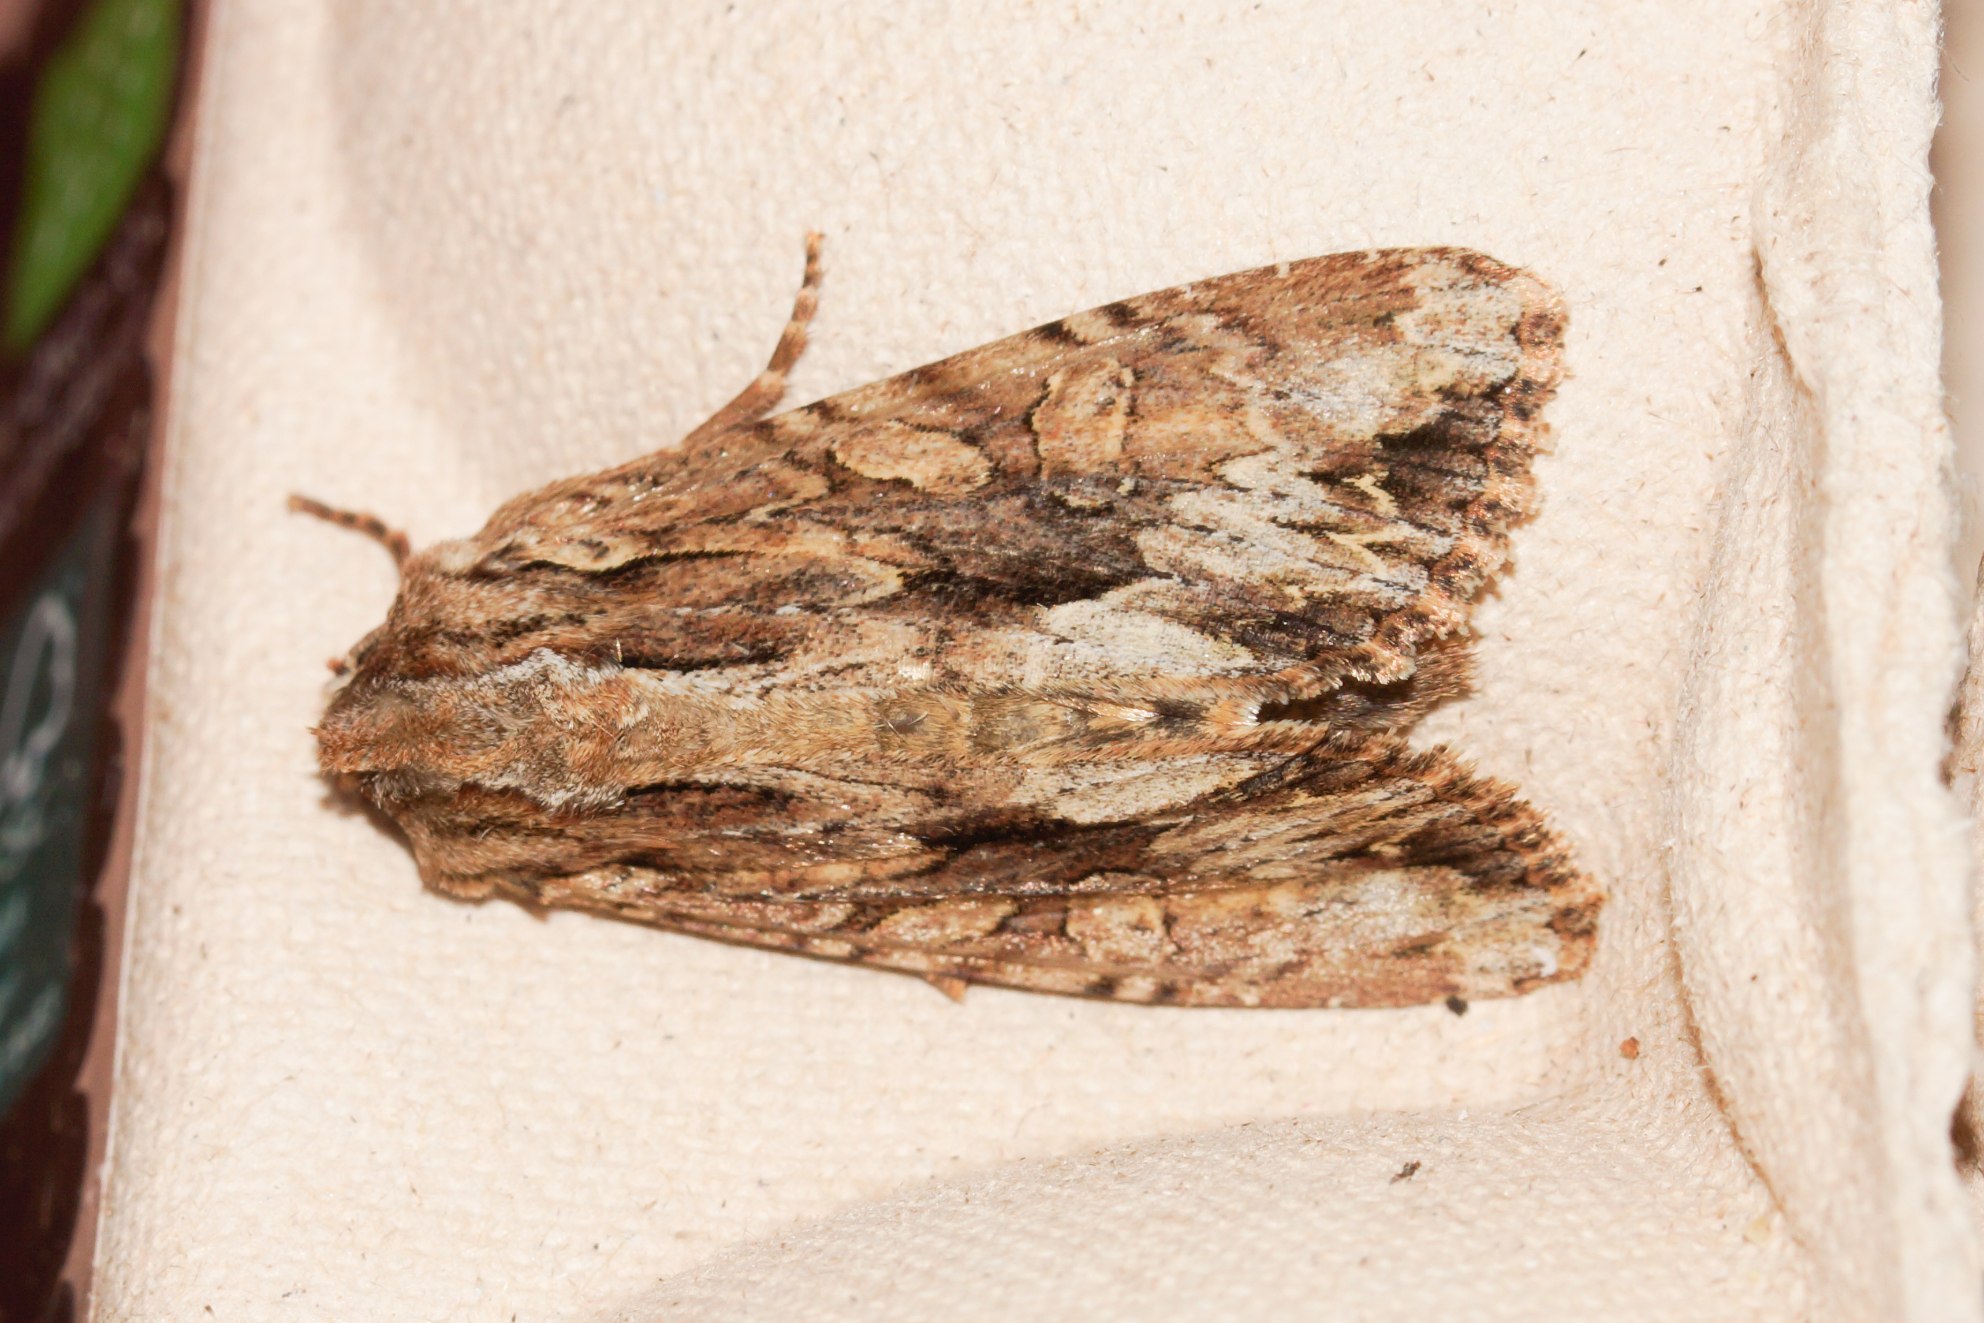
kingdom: Animalia
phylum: Arthropoda
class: Insecta
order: Lepidoptera
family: Noctuidae
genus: Apamea
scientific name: Apamea monoglypha
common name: Jordugle
